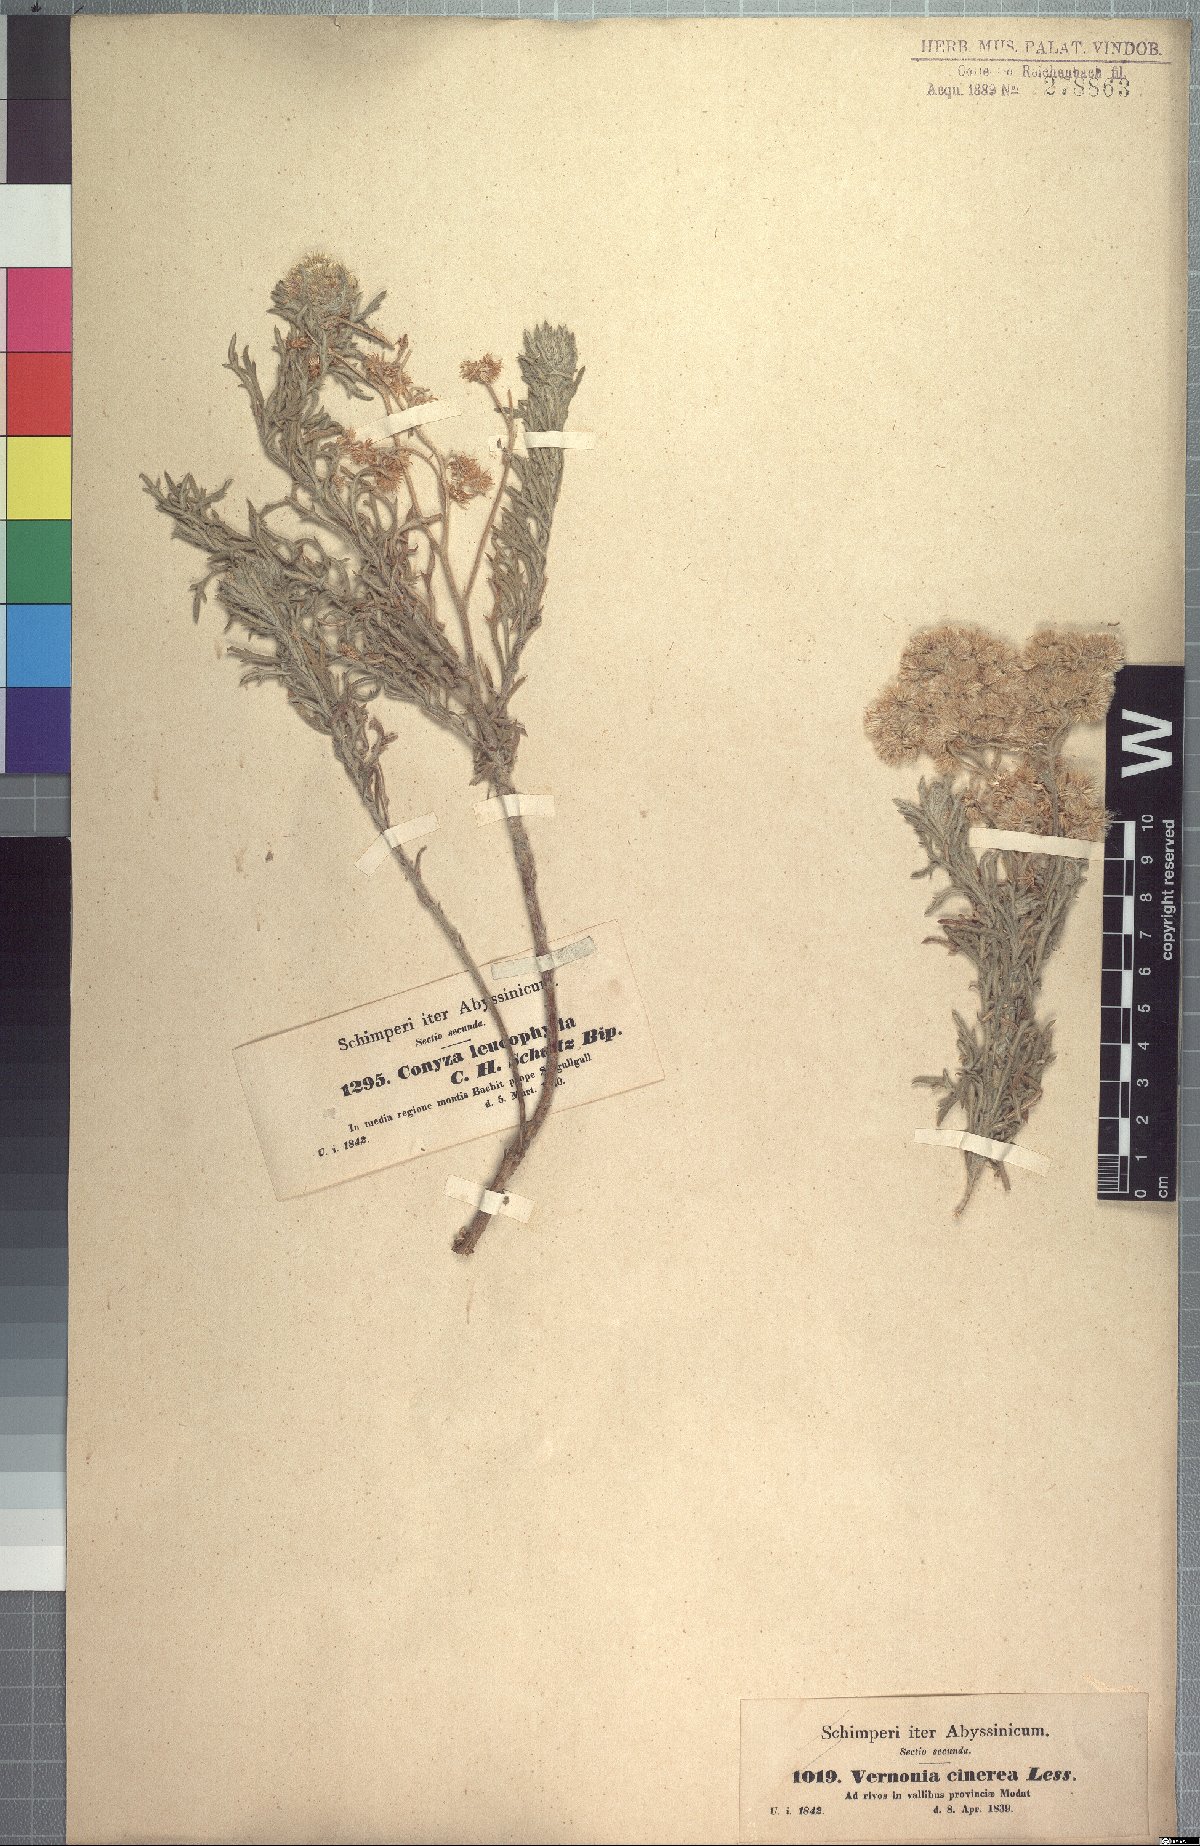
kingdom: Plantae
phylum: Tracheophyta
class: Magnoliopsida
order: Asterales
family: Asteraceae
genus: Conyza
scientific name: Conyza incana
